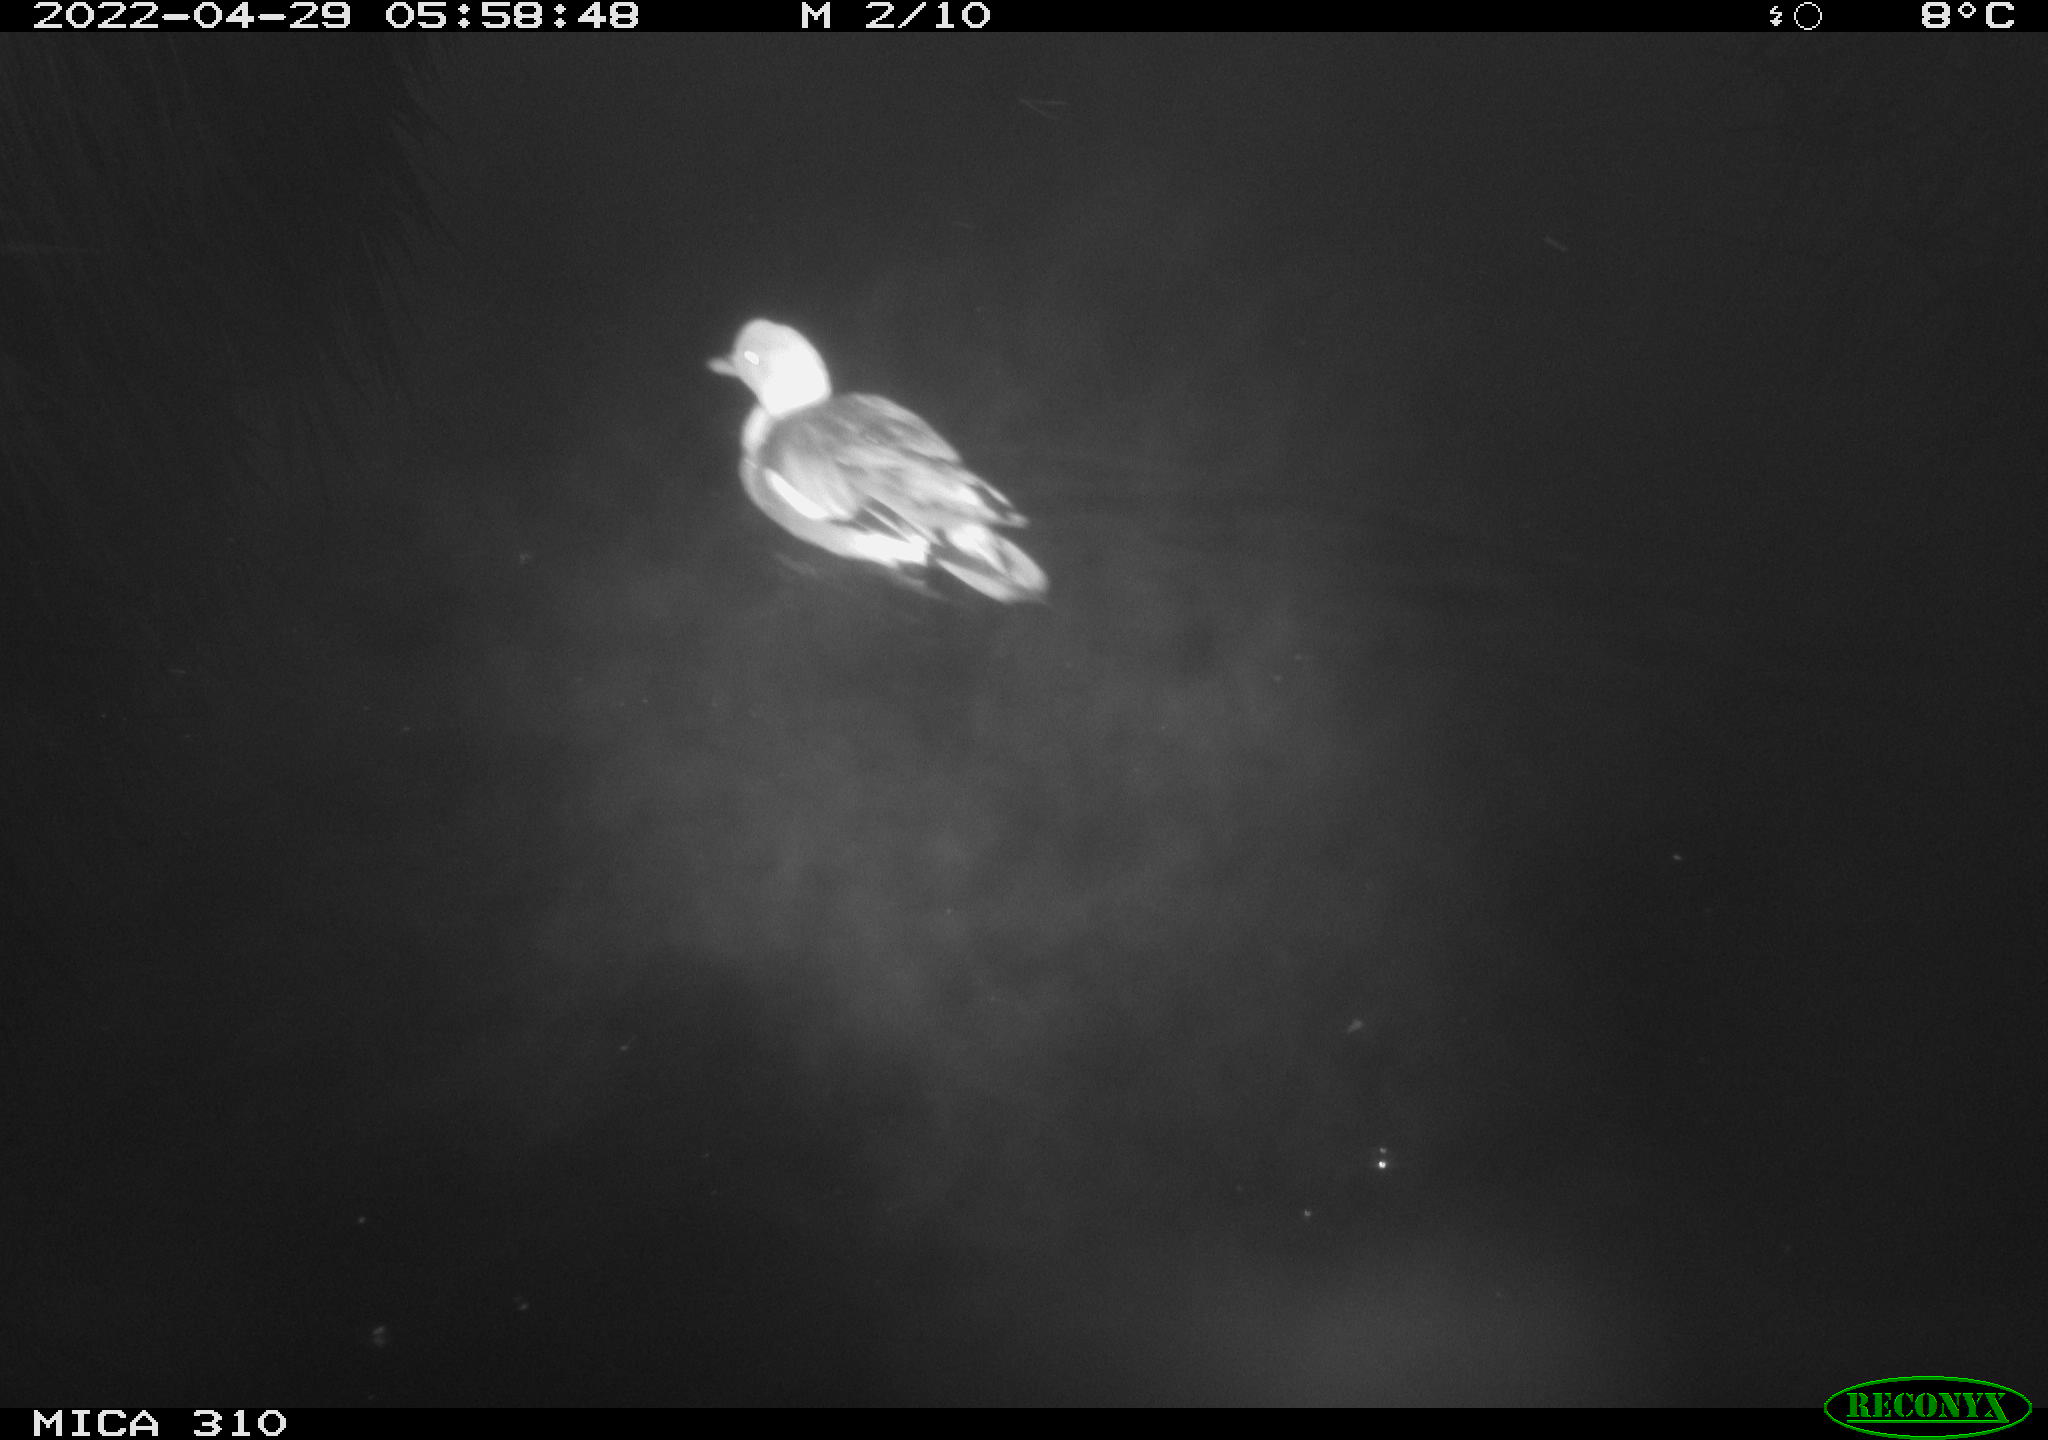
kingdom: Animalia
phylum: Chordata
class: Aves
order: Anseriformes
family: Anatidae
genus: Mareca
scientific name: Mareca strepera
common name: Gadwall
